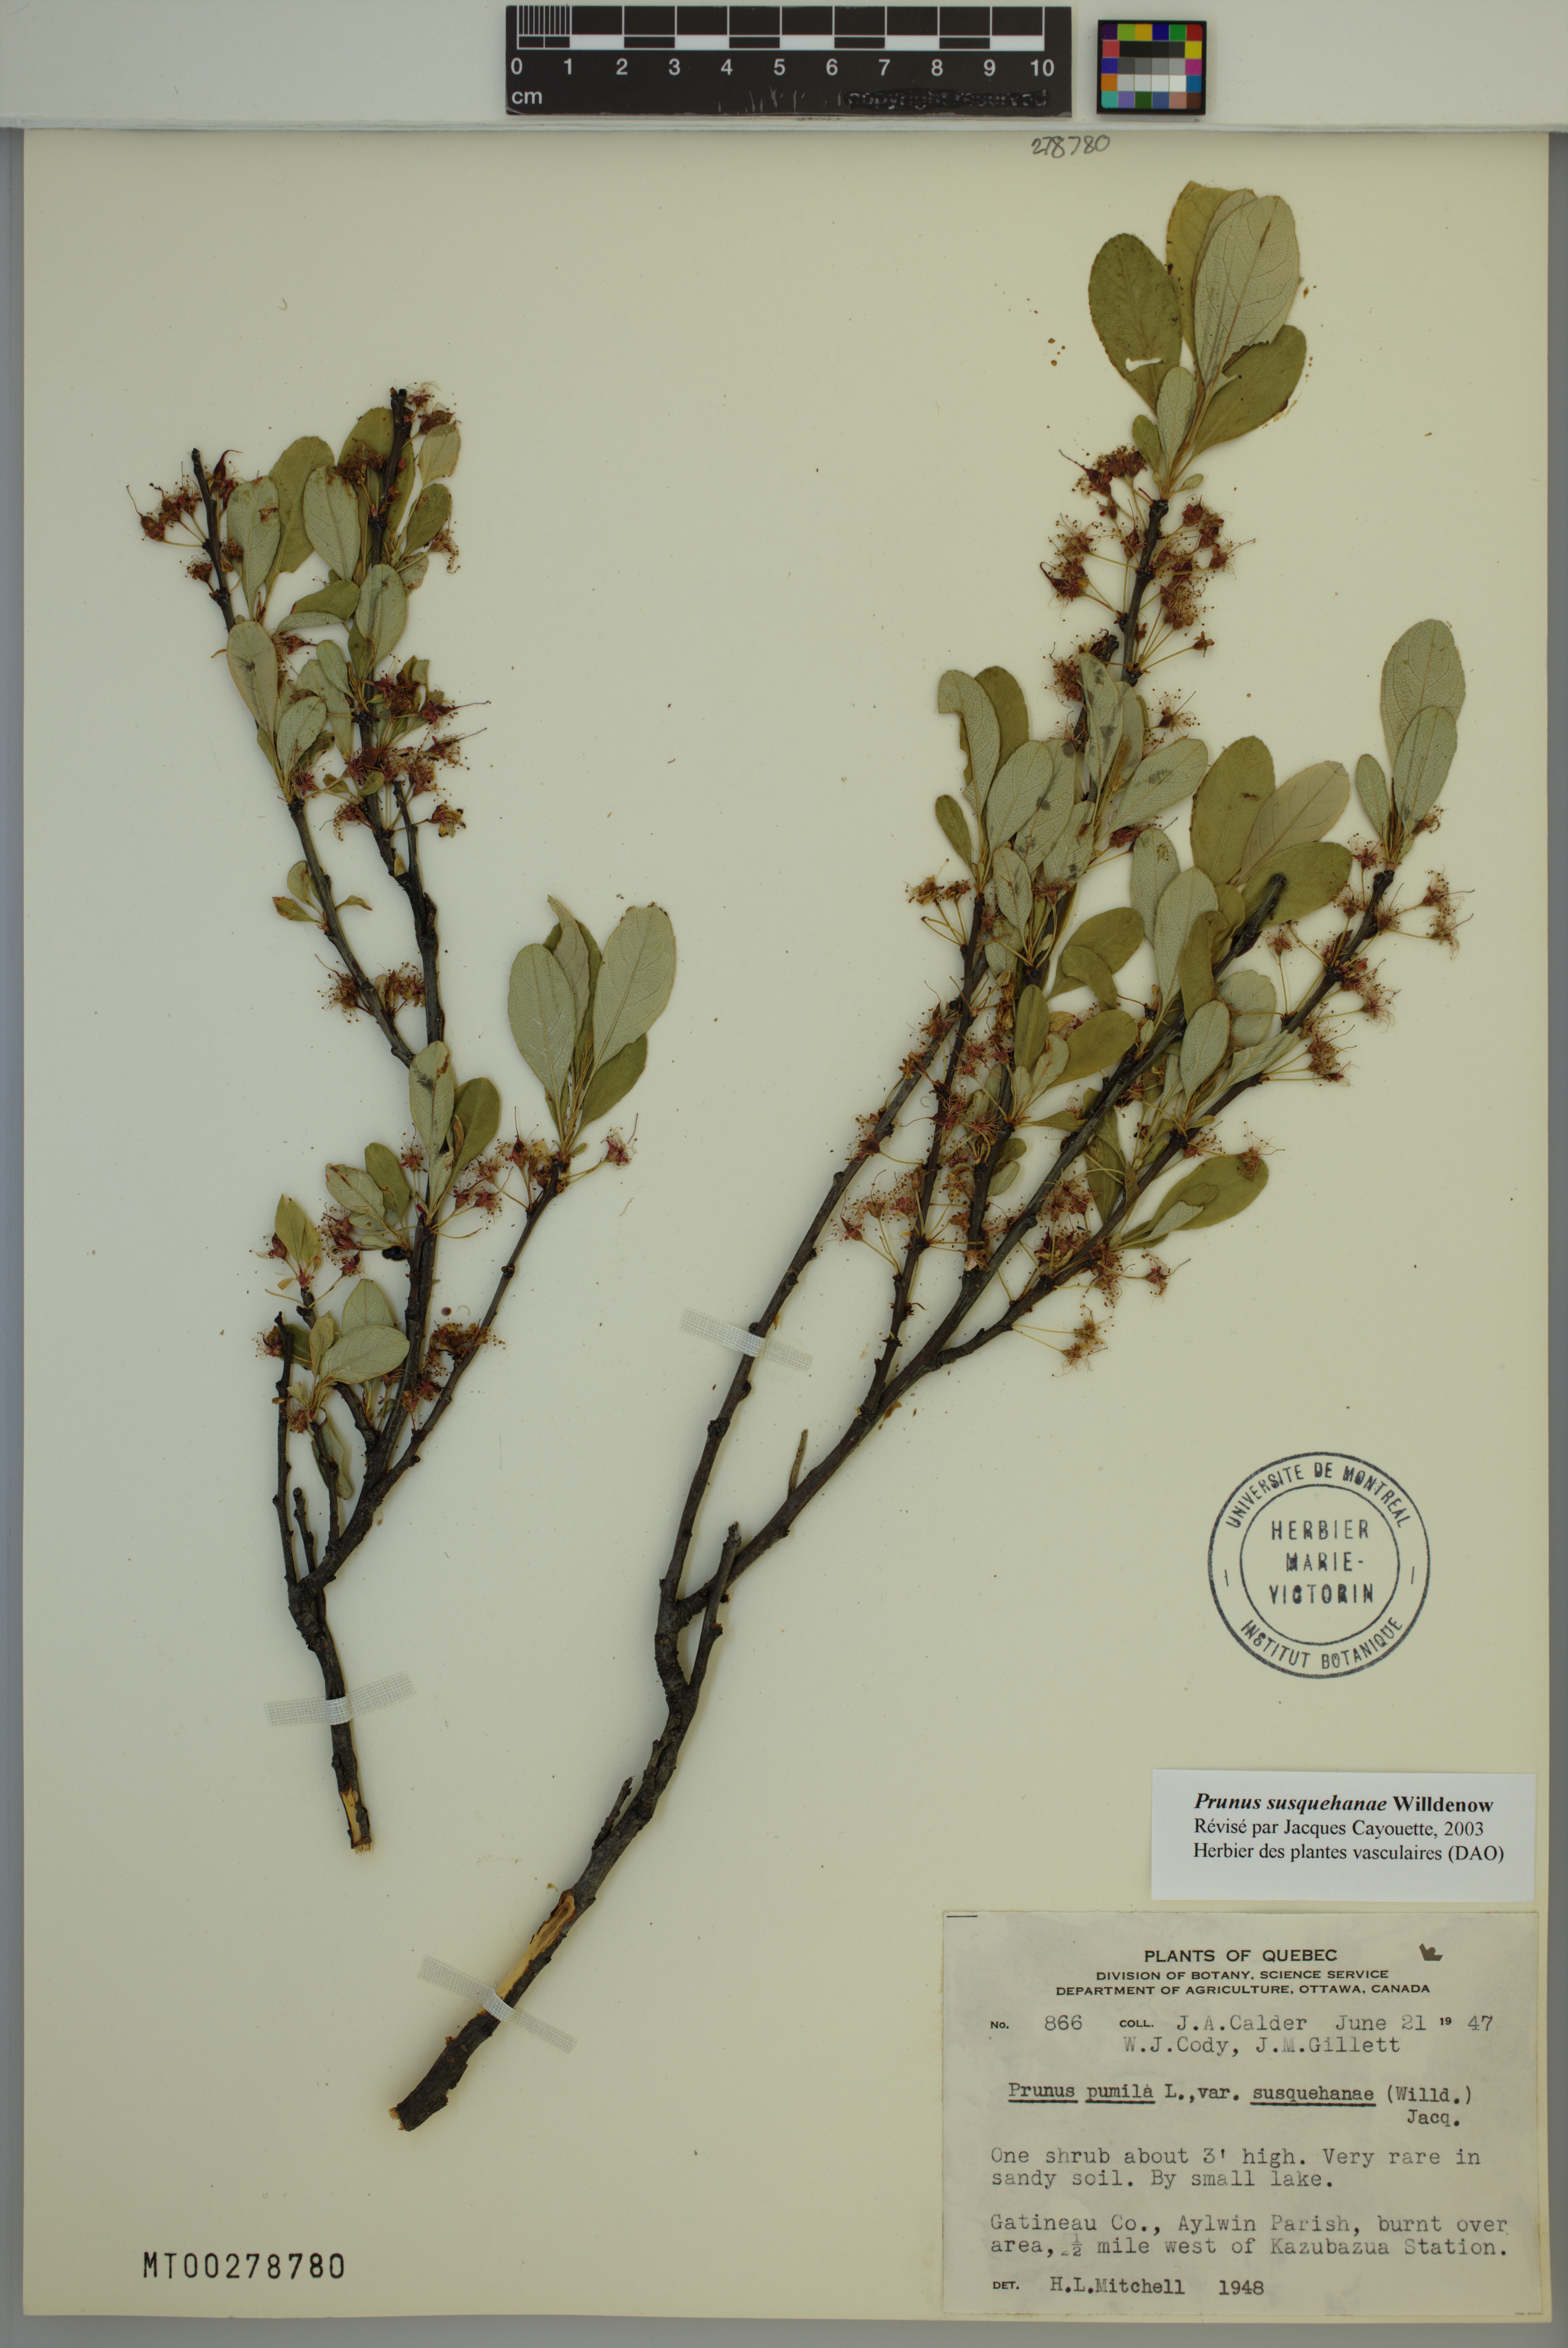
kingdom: Plantae
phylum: Tracheophyta
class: Magnoliopsida
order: Rosales
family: Rosaceae
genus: Prunus
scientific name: Prunus susquehanae
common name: Sesquehana sandcherry
